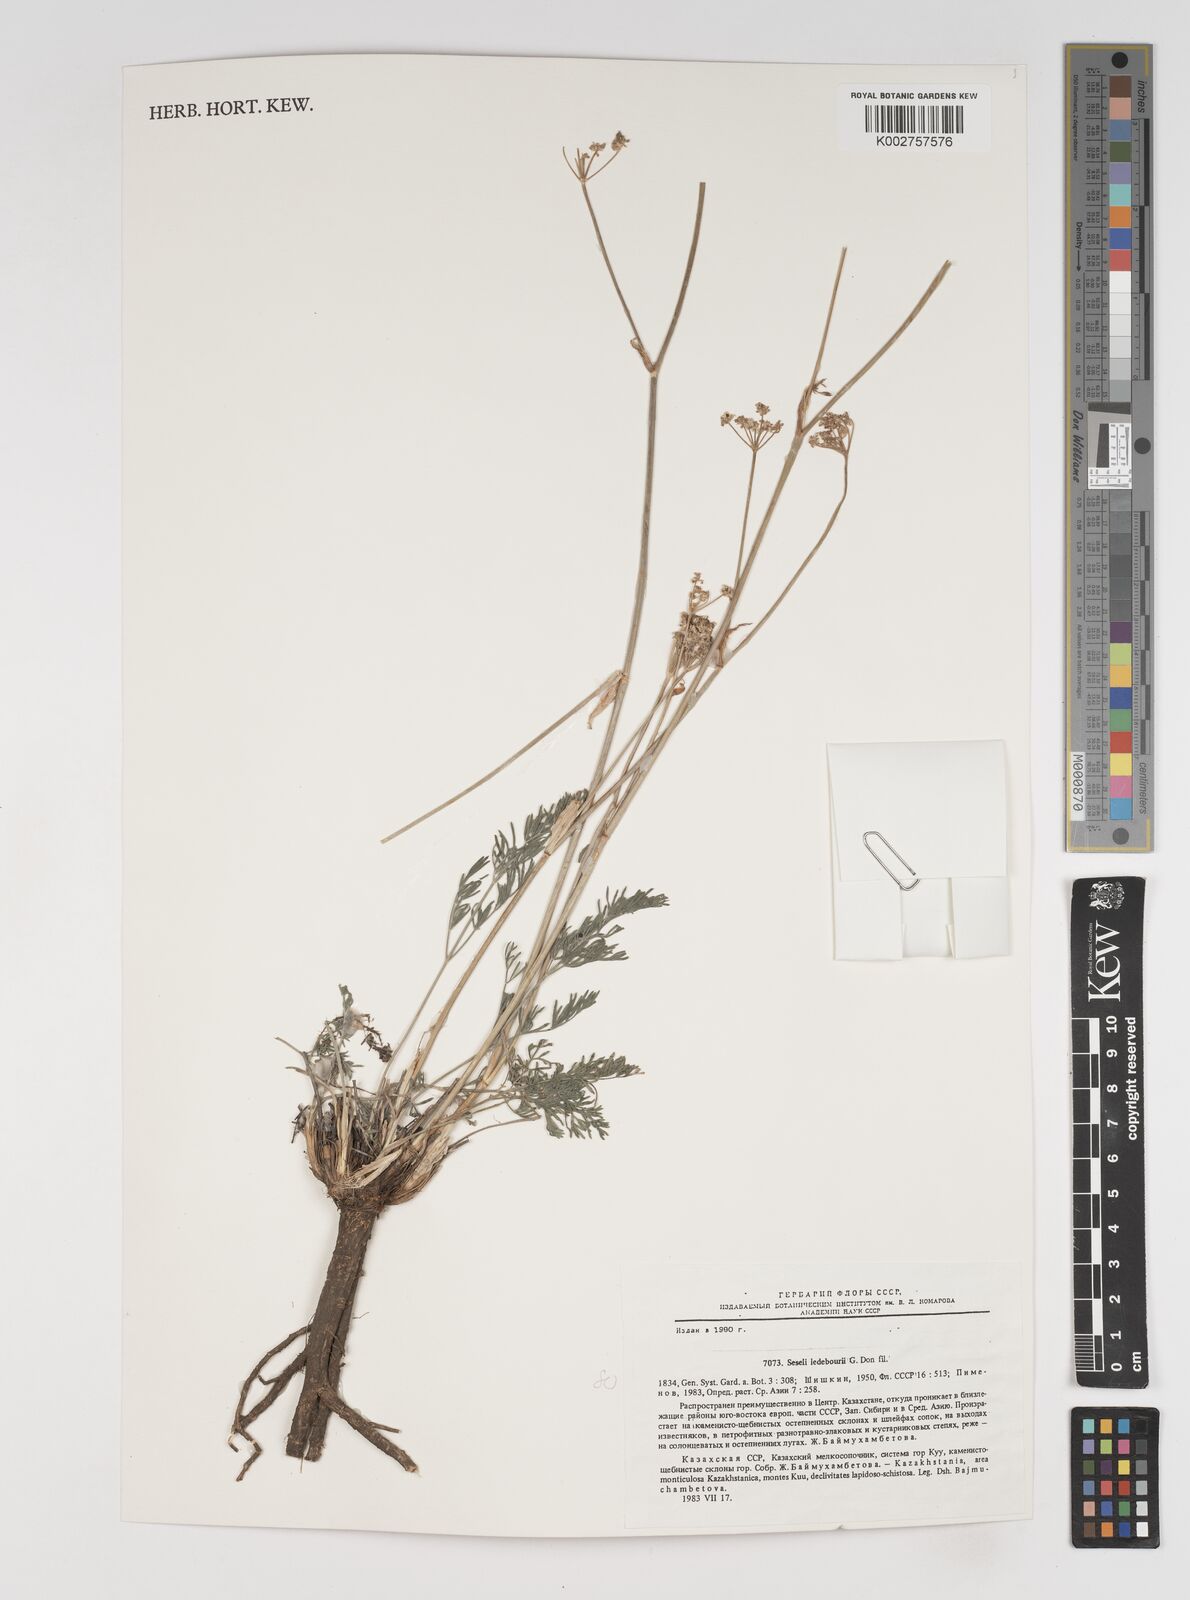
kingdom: Plantae
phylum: Tracheophyta
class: Magnoliopsida
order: Apiales
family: Apiaceae
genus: Hippomarathrum
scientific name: Hippomarathrum ledebourii
